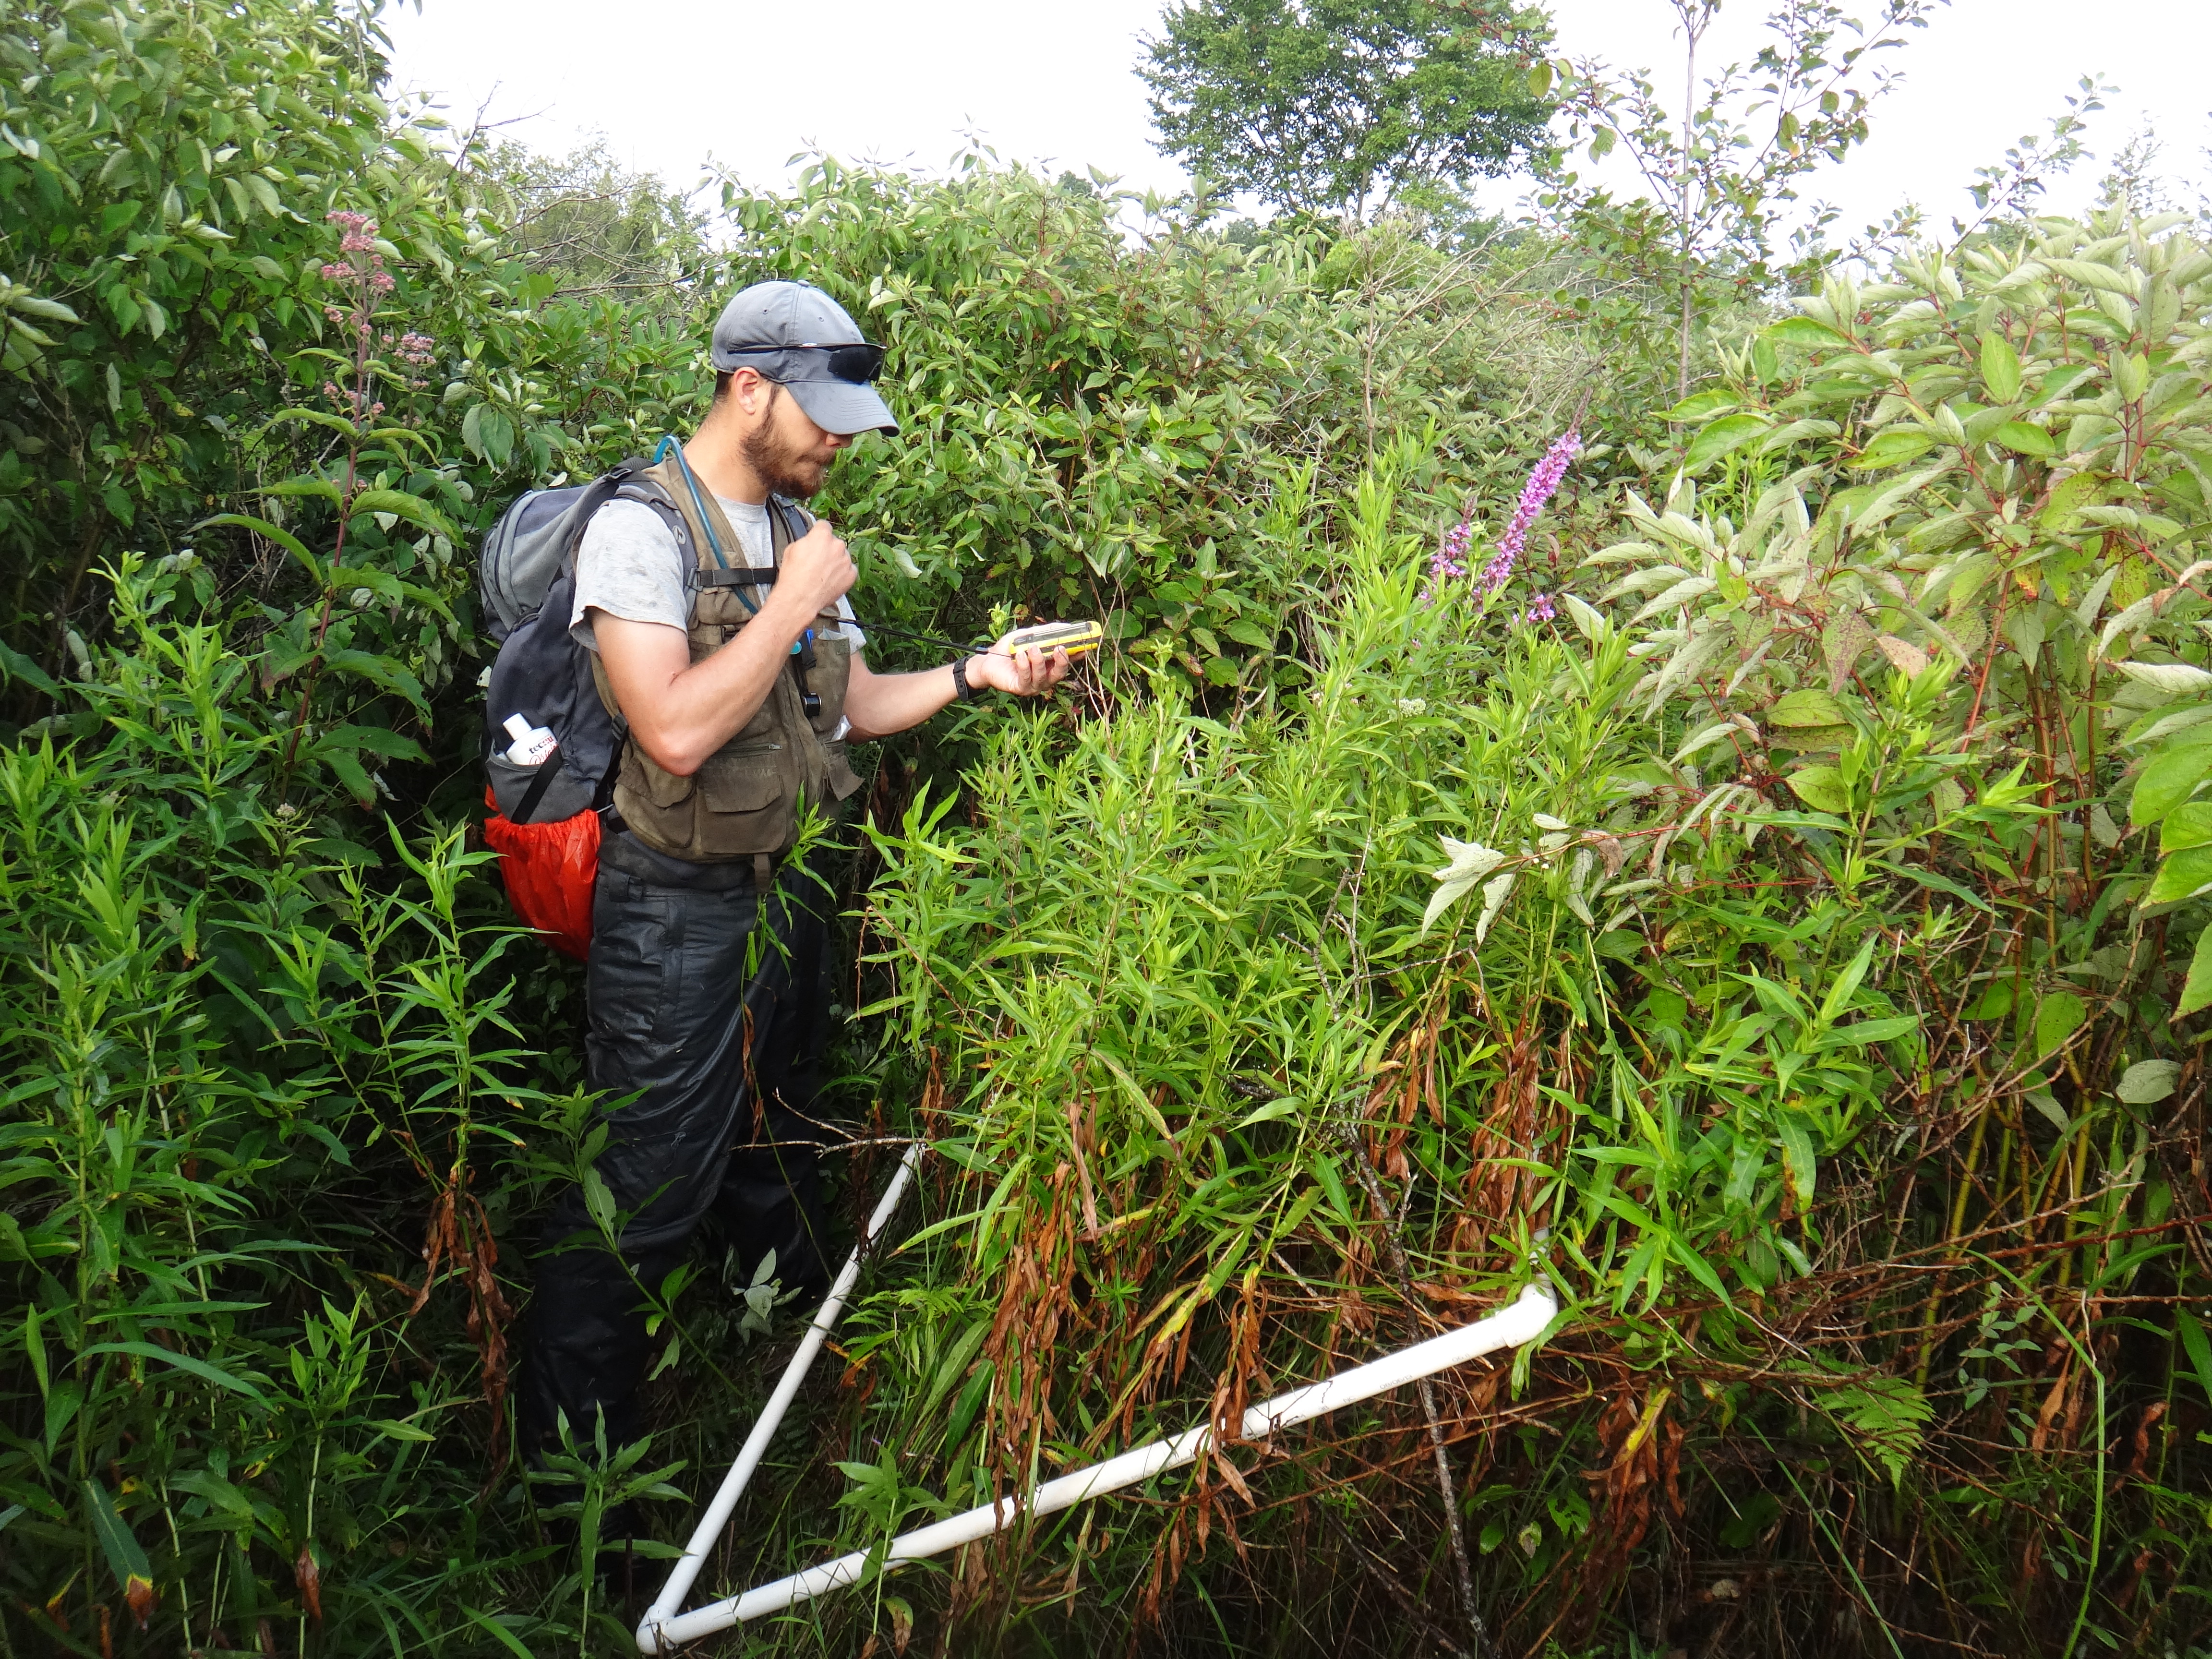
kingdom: Plantae
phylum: Tracheophyta
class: Magnoliopsida
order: Asterales
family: Asteraceae
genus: Solidago
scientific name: Solidago patula
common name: Rough-leaf goldenrod
